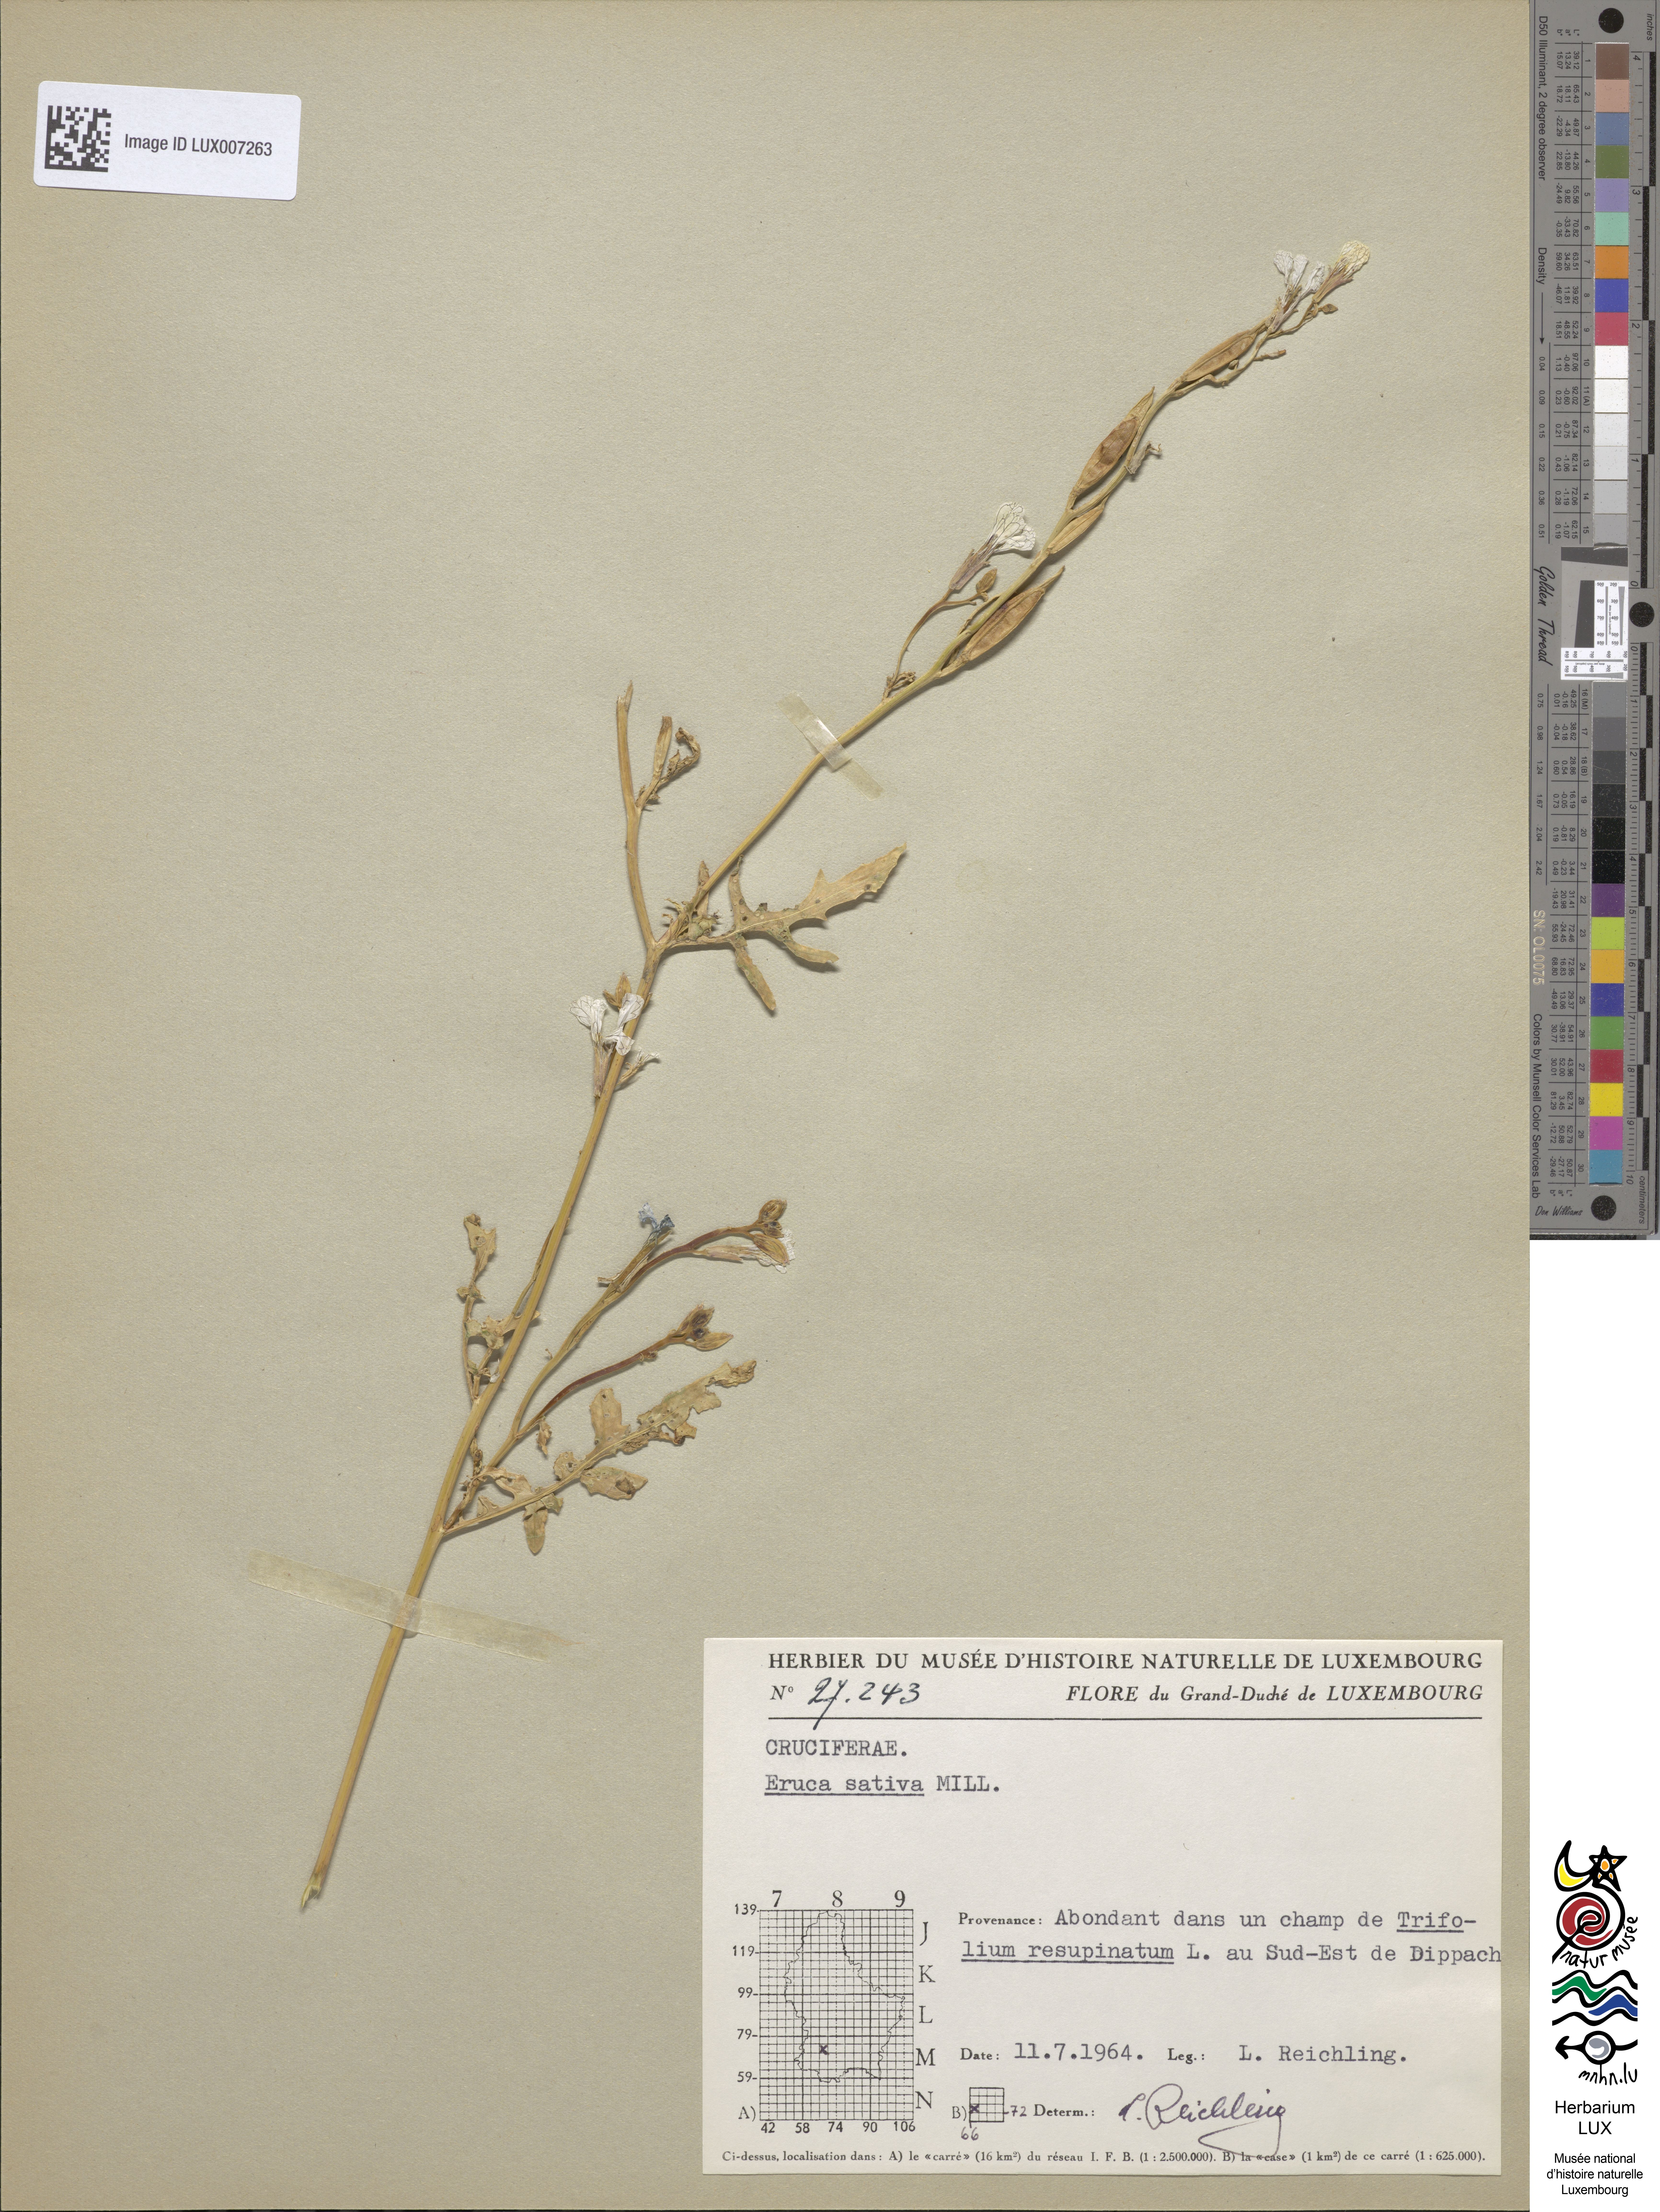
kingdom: Plantae
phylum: Tracheophyta
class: Magnoliopsida
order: Brassicales
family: Brassicaceae
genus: Eruca
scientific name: Eruca vesicaria
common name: Garden rocket
